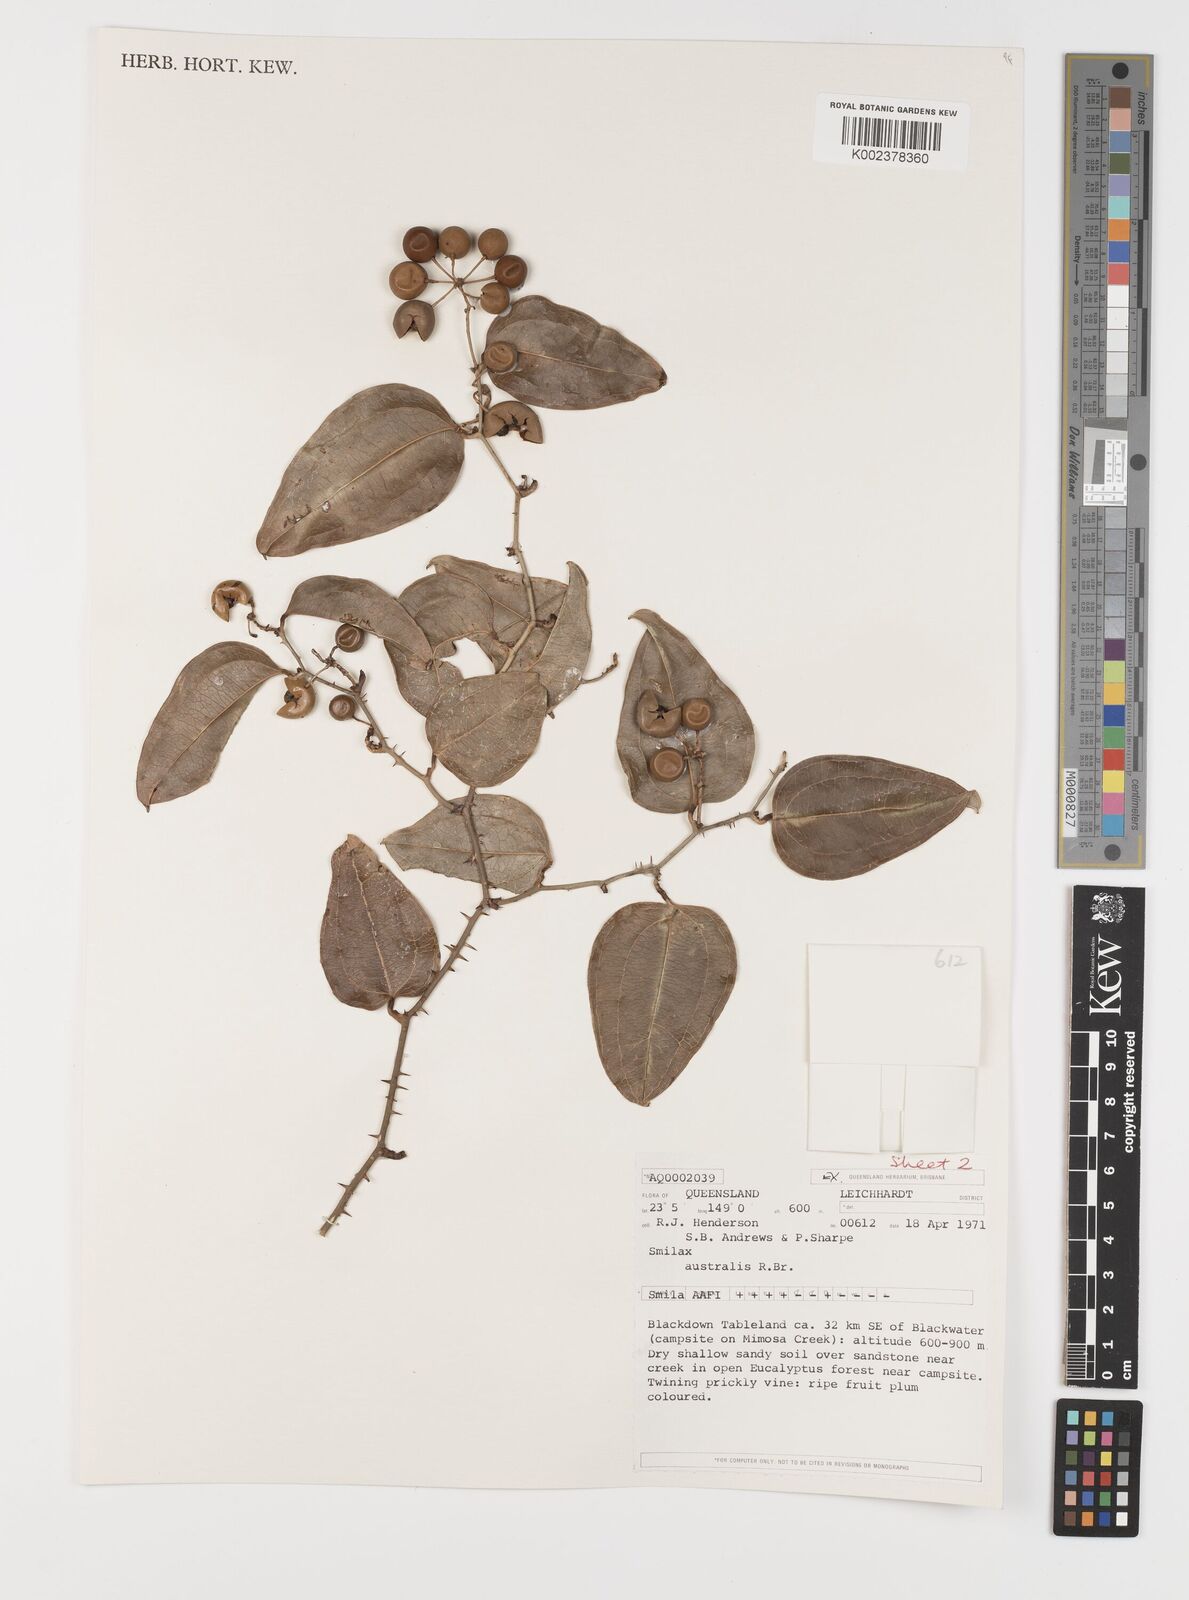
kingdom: Plantae
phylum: Tracheophyta
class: Liliopsida
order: Liliales
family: Smilacaceae
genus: Smilax
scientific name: Smilax australis
